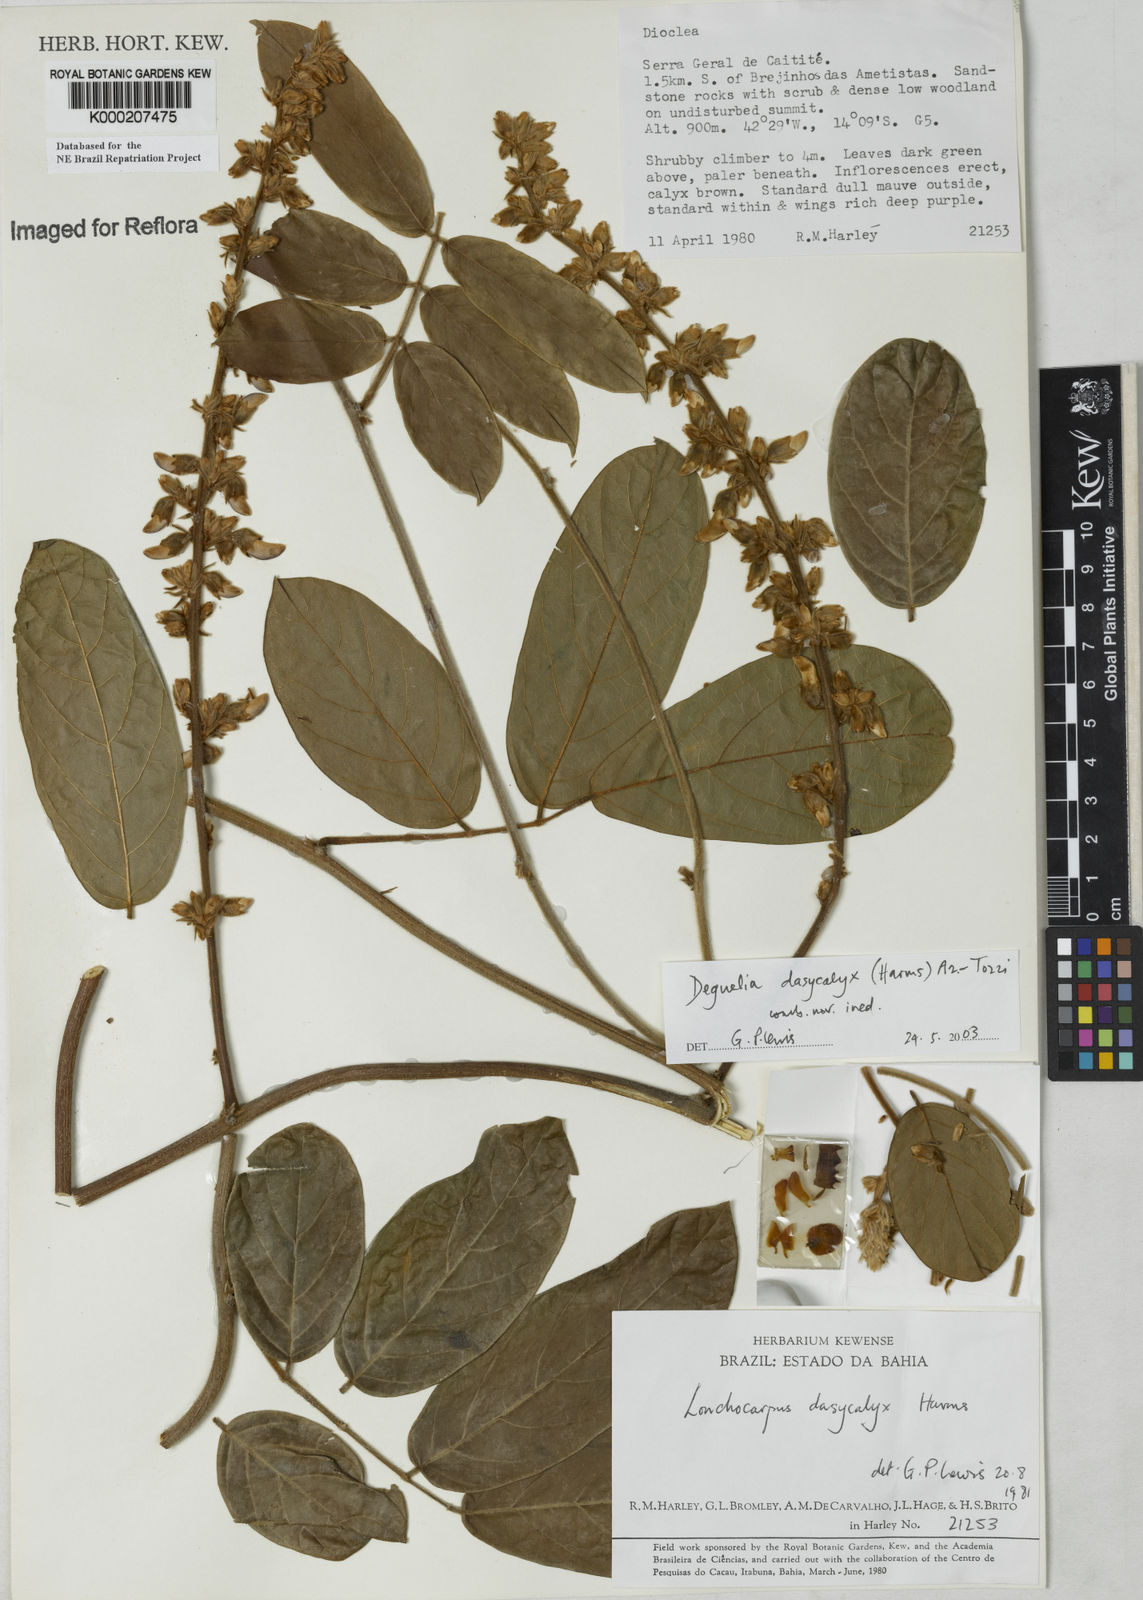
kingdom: Plantae
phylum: Tracheophyta
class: Magnoliopsida
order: Fabales
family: Fabaceae
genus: Deguelia
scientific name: Deguelia
